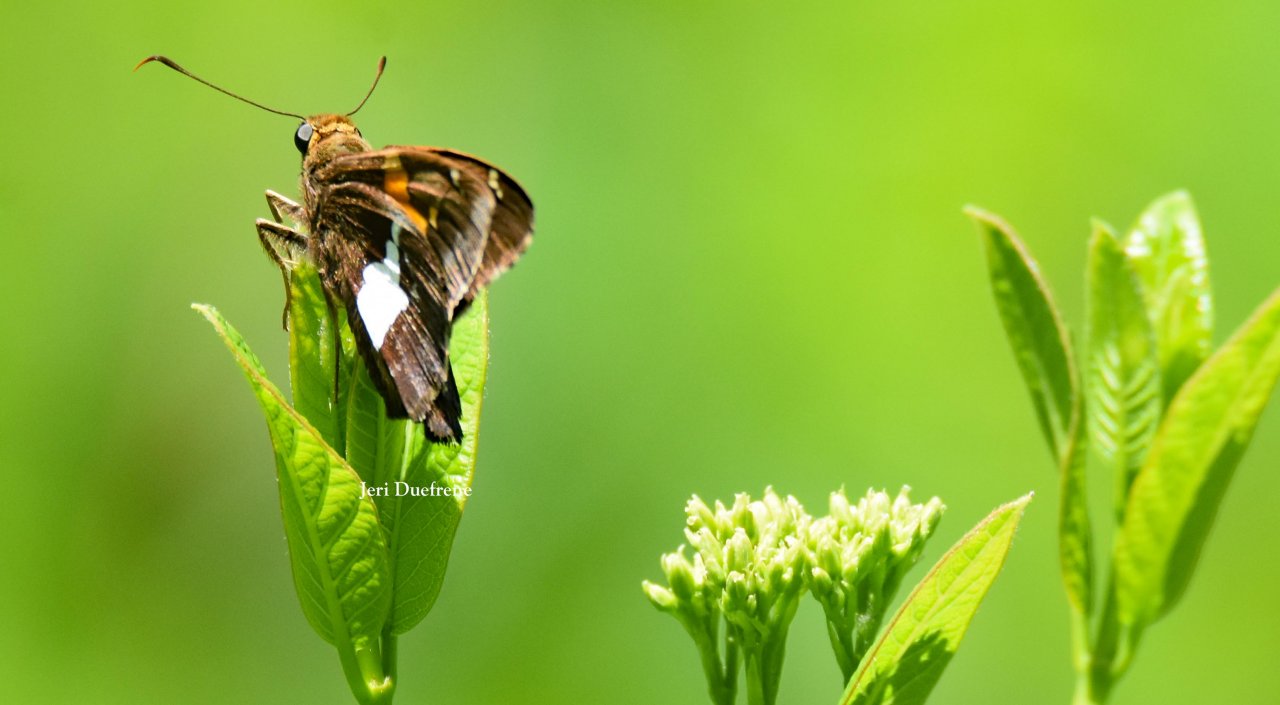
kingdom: Animalia
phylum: Arthropoda
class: Insecta
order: Lepidoptera
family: Hesperiidae
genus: Epargyreus
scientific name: Epargyreus clarus
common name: Silver-spotted Skipper
